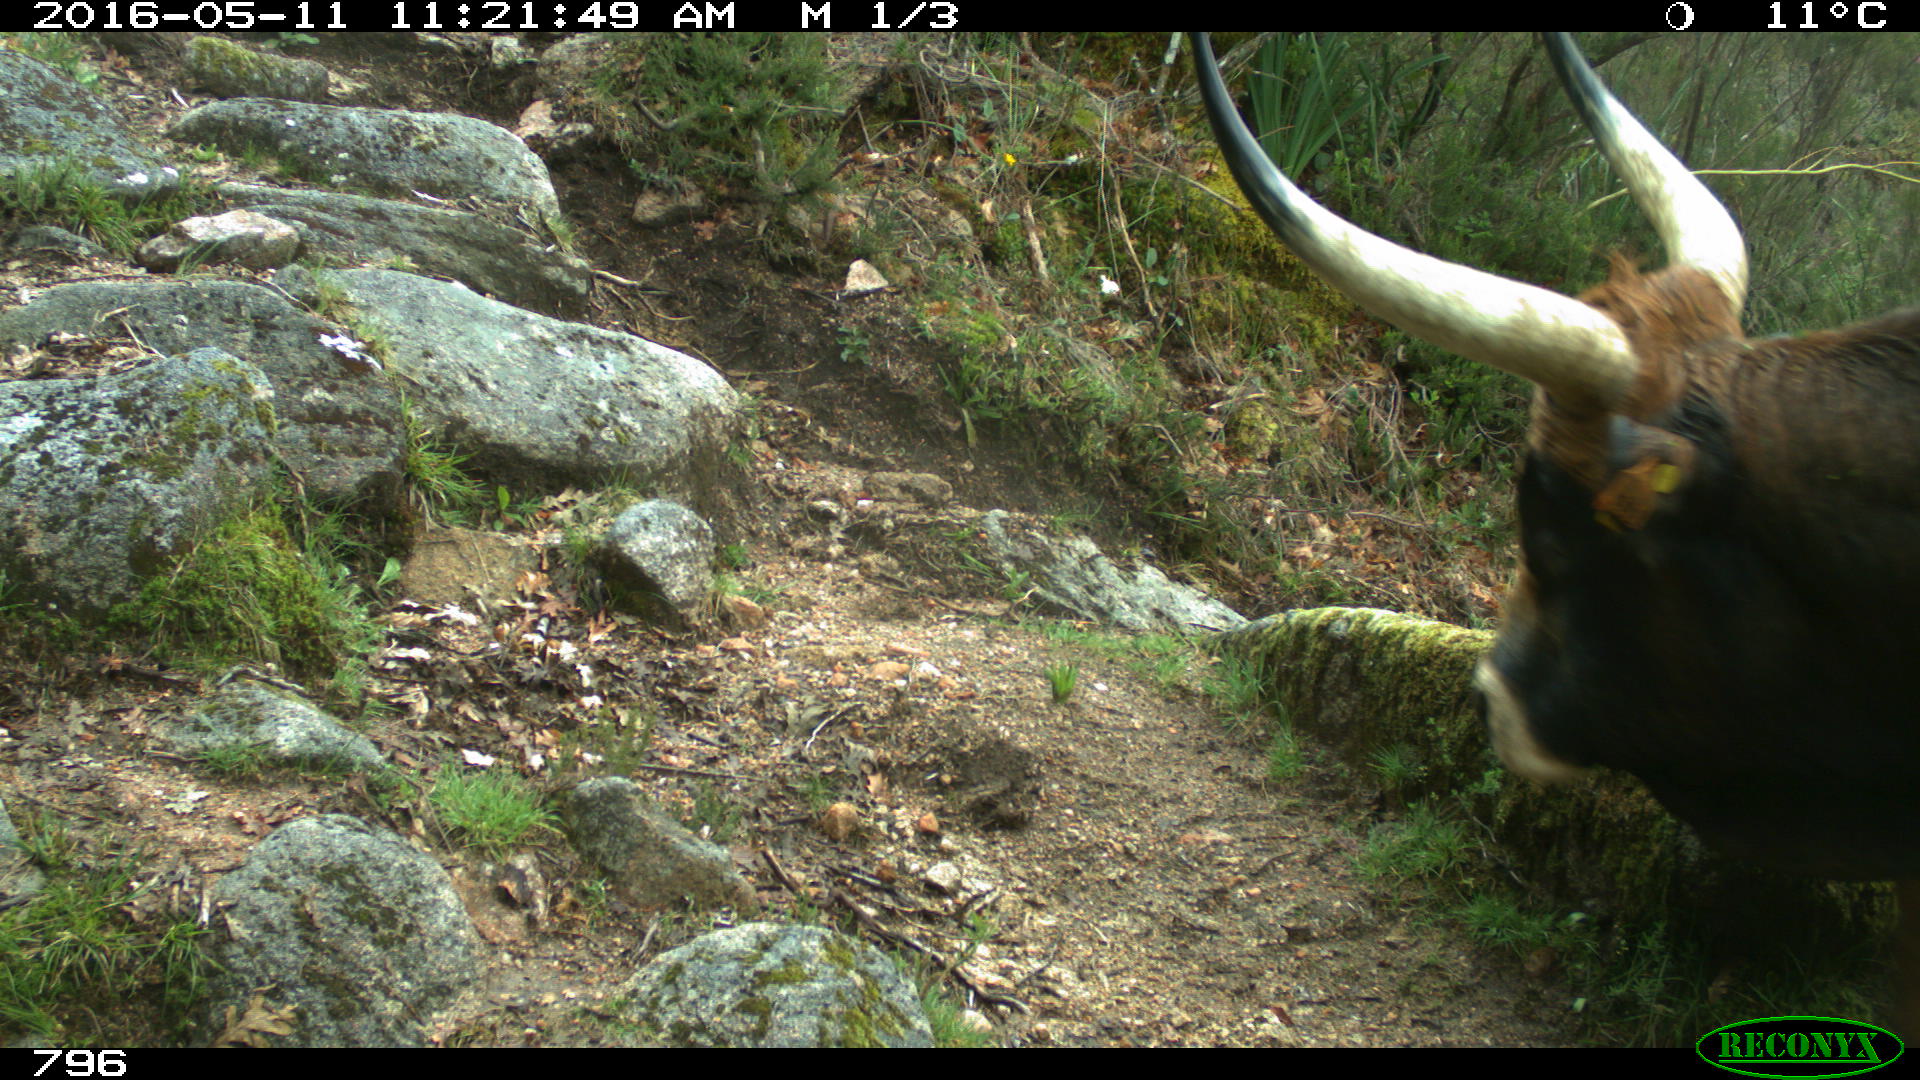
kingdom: Animalia
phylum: Chordata
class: Mammalia
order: Artiodactyla
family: Bovidae
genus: Bos
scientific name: Bos taurus
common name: Domesticated cattle
